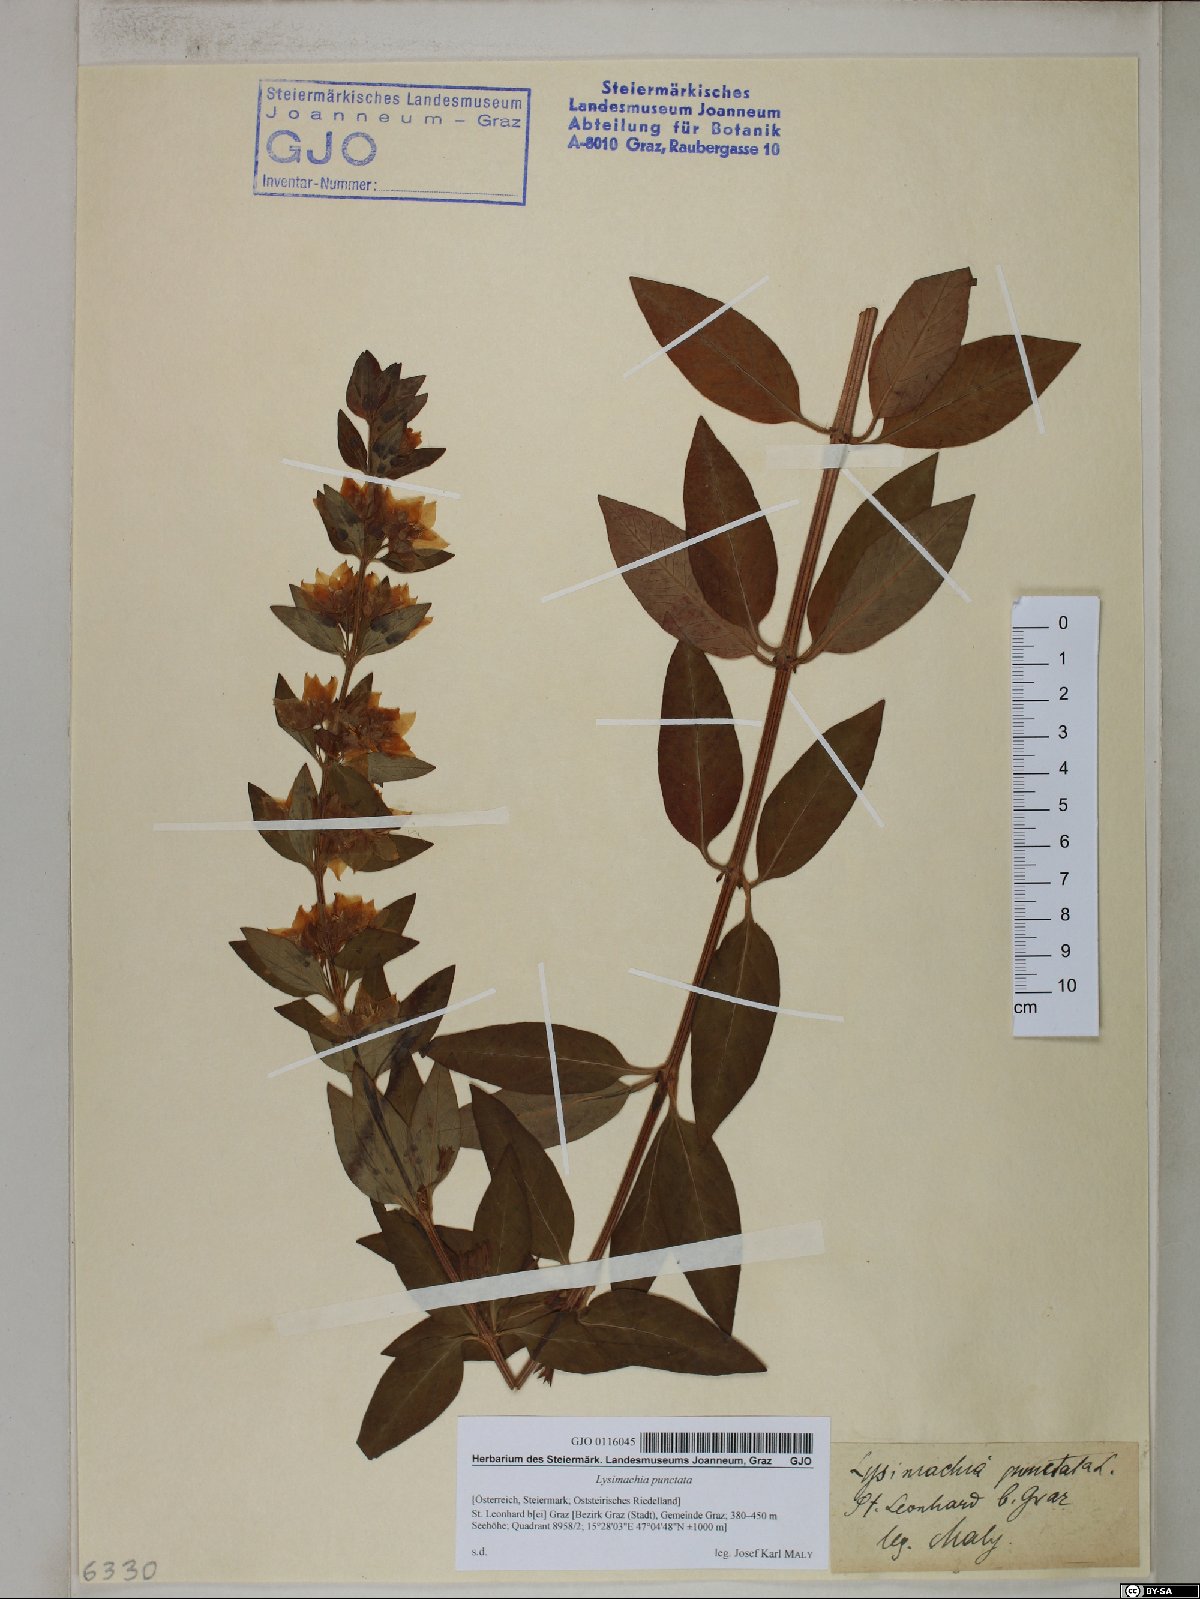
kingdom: Plantae
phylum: Tracheophyta
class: Magnoliopsida
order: Ericales
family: Primulaceae
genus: Lysimachia
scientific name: Lysimachia punctata
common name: Dotted loosestrife
